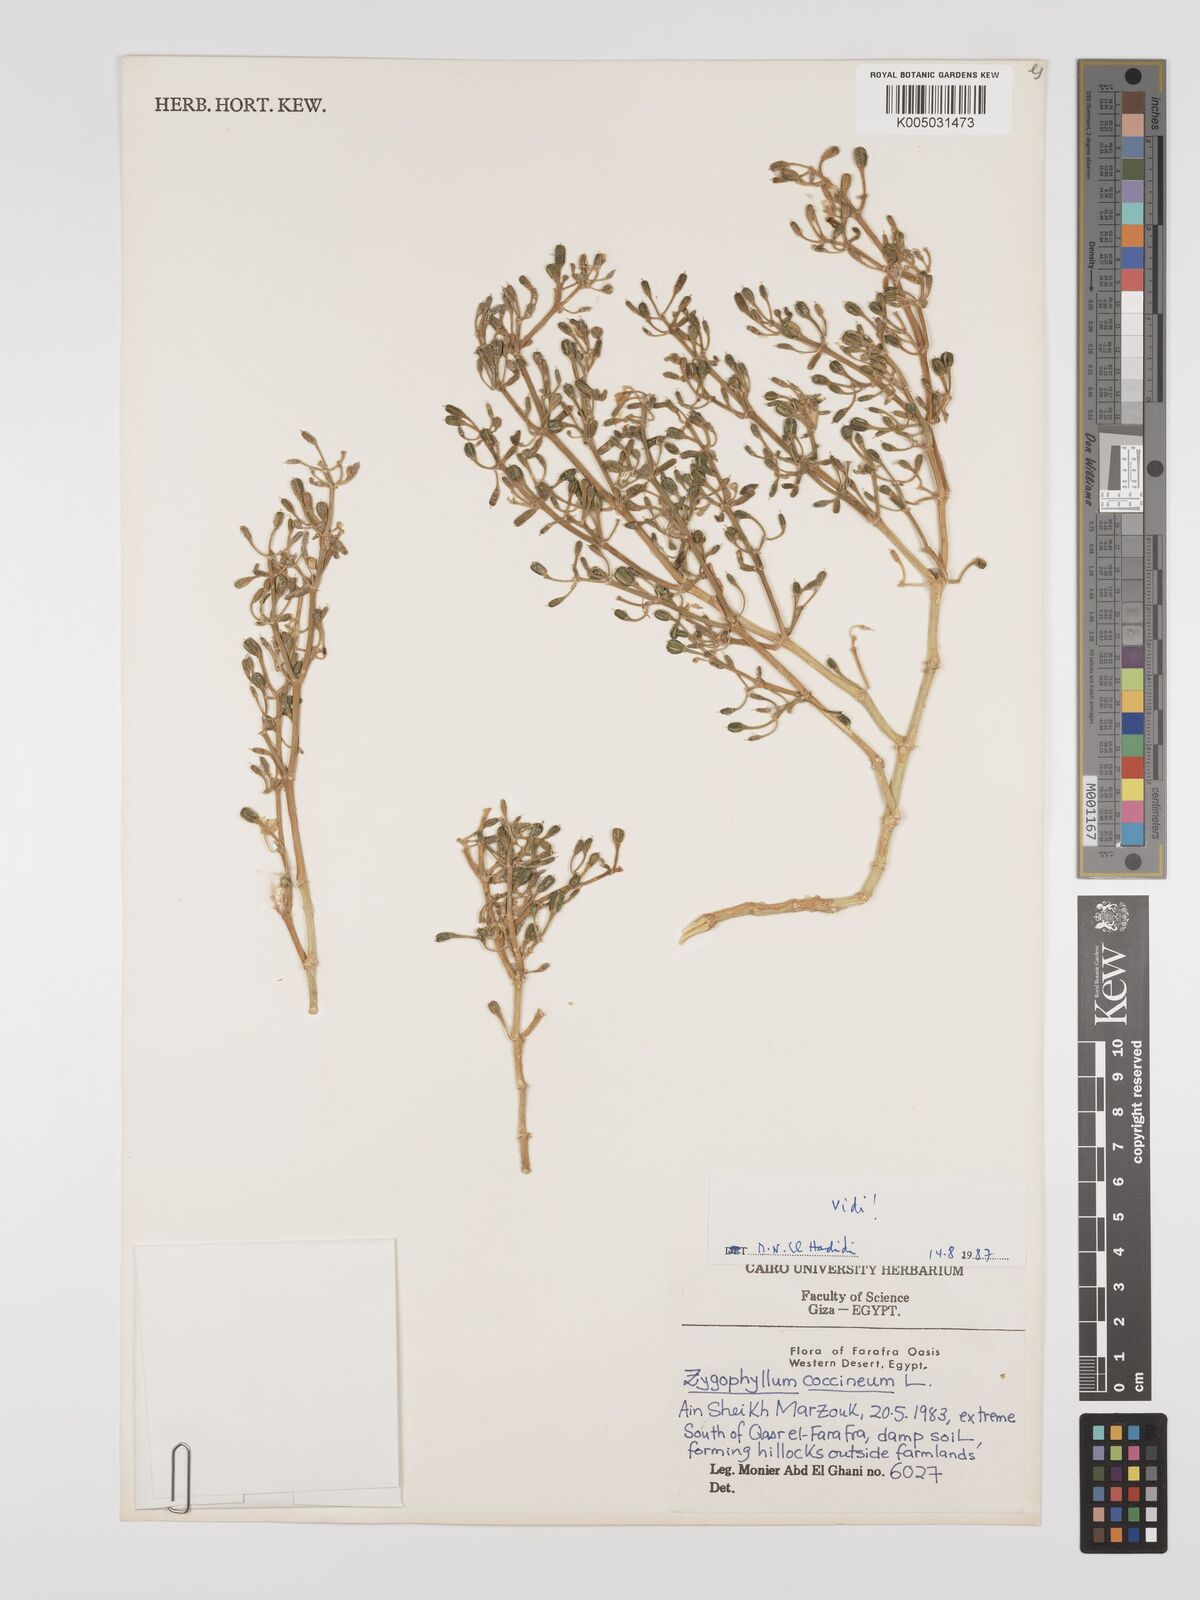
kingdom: Plantae
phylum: Tracheophyta
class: Magnoliopsida
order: Zygophyllales
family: Zygophyllaceae
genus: Tetraena
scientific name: Tetraena coccinea
